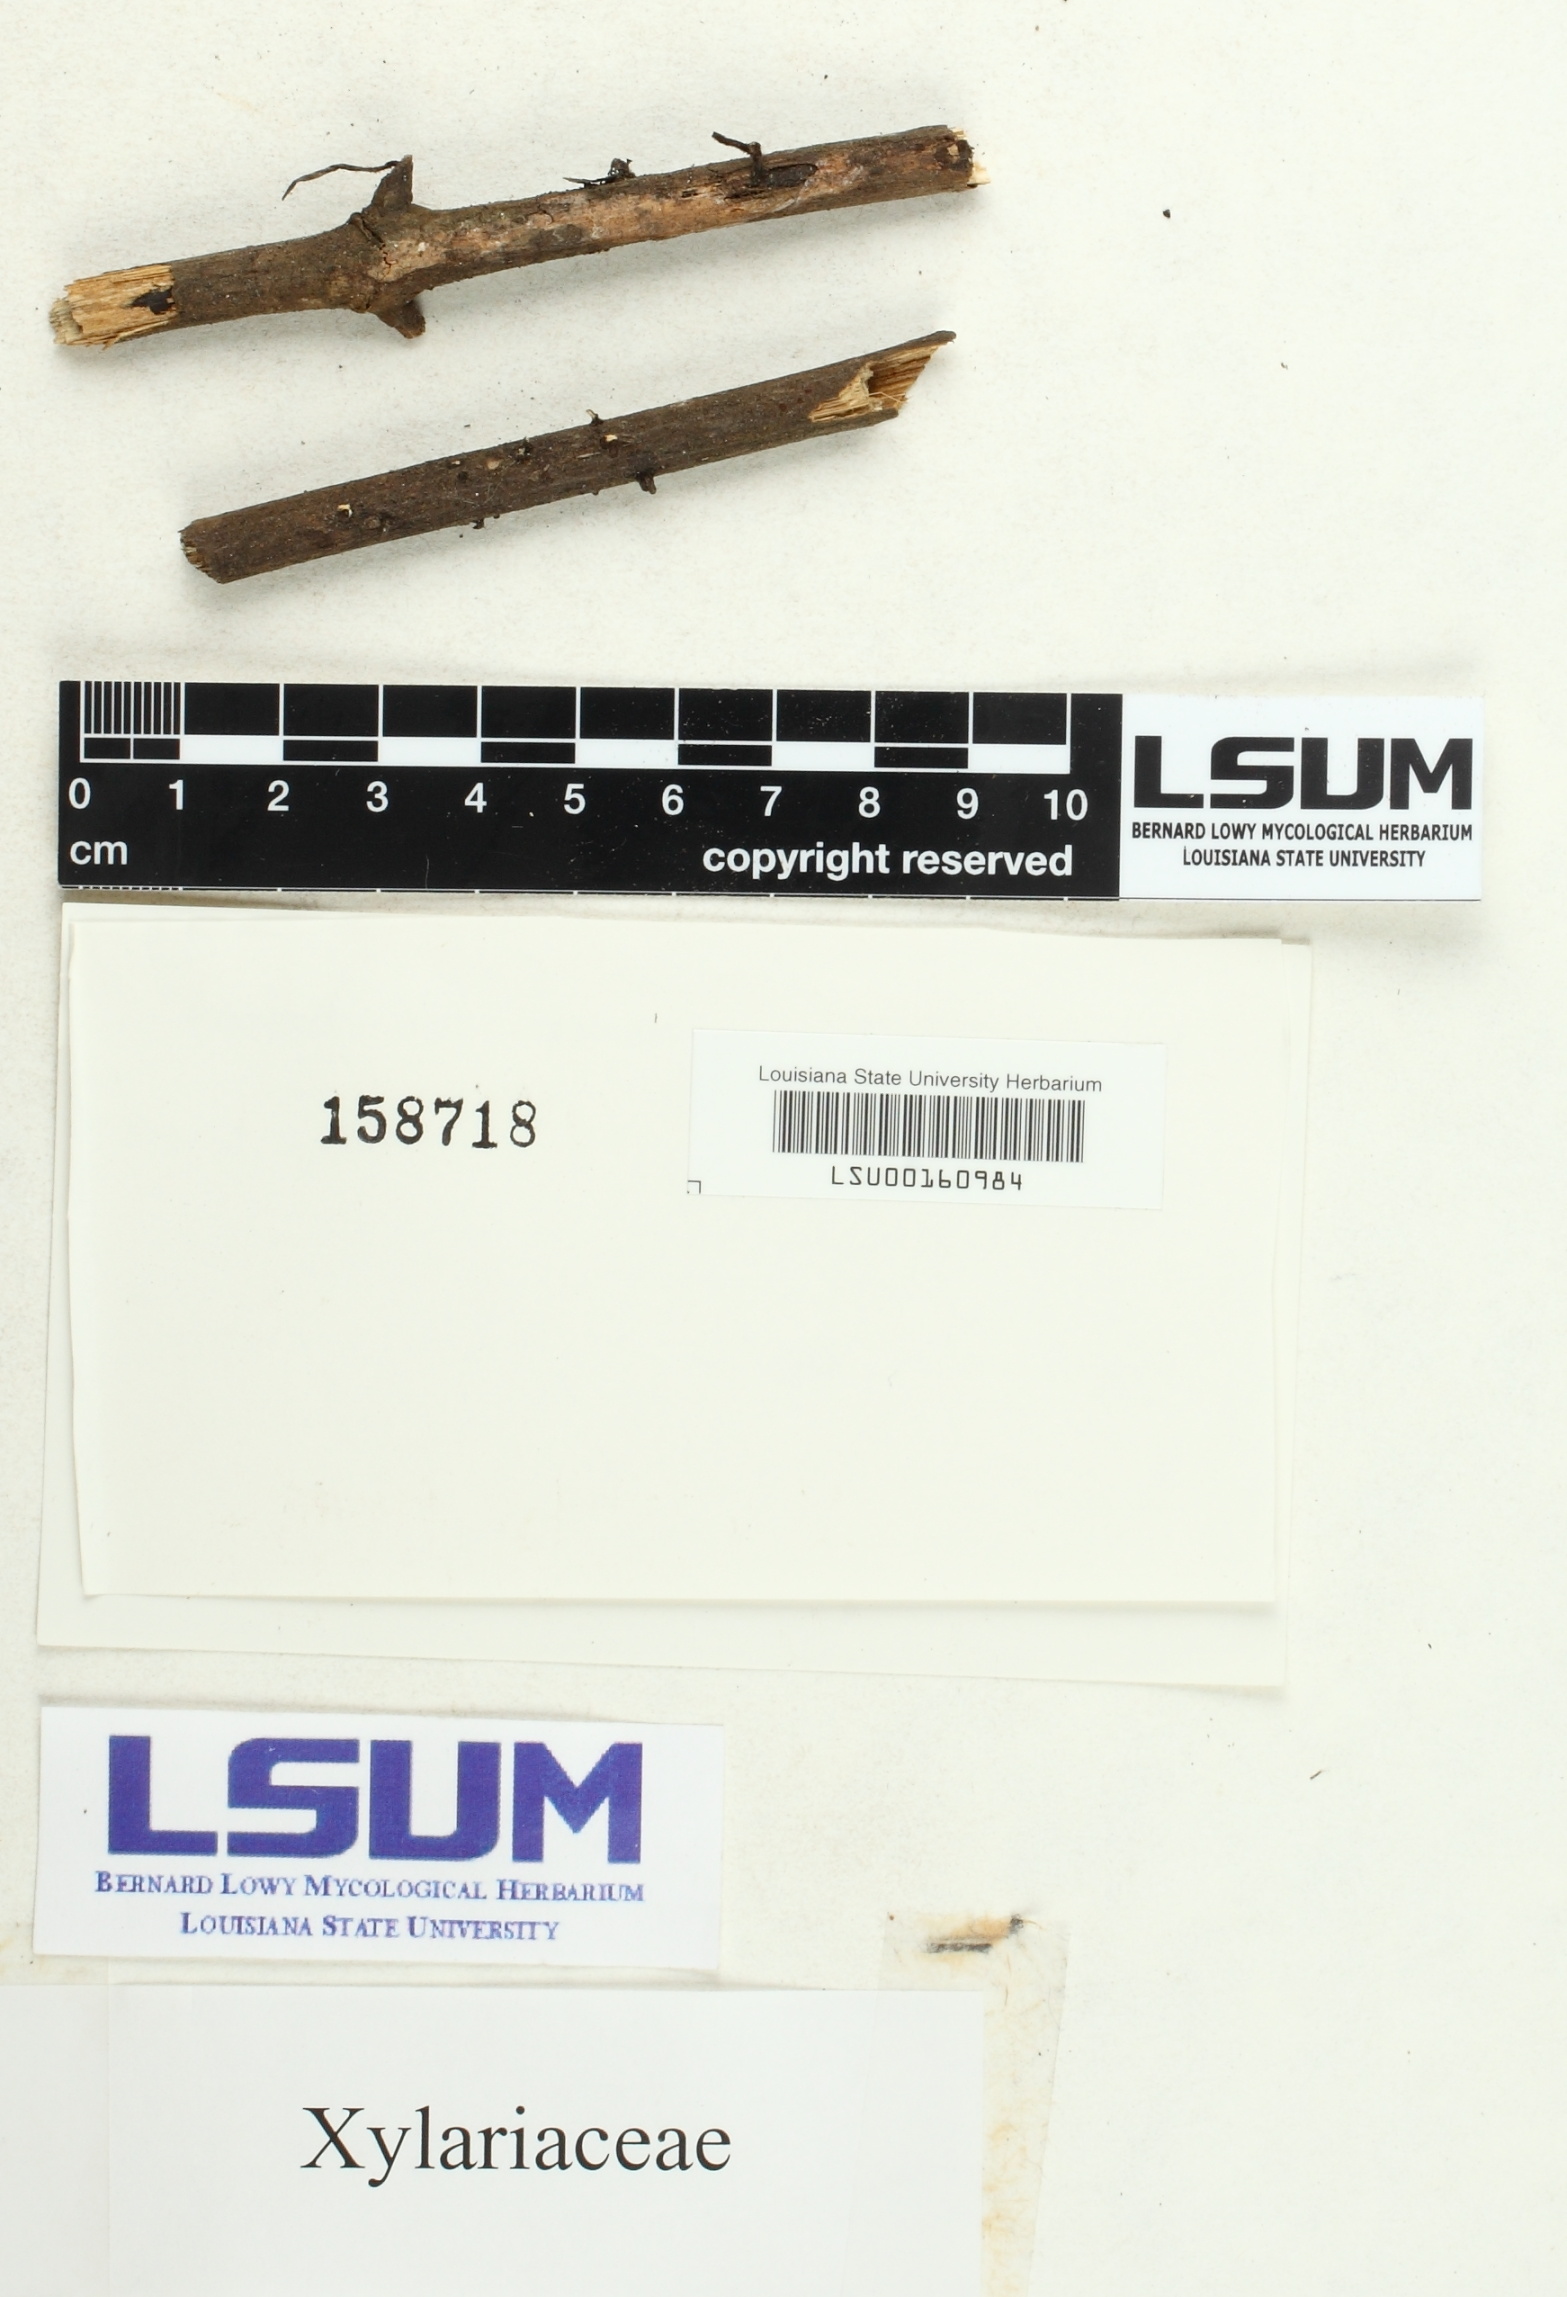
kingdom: Fungi
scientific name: Fungi
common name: Fungi
